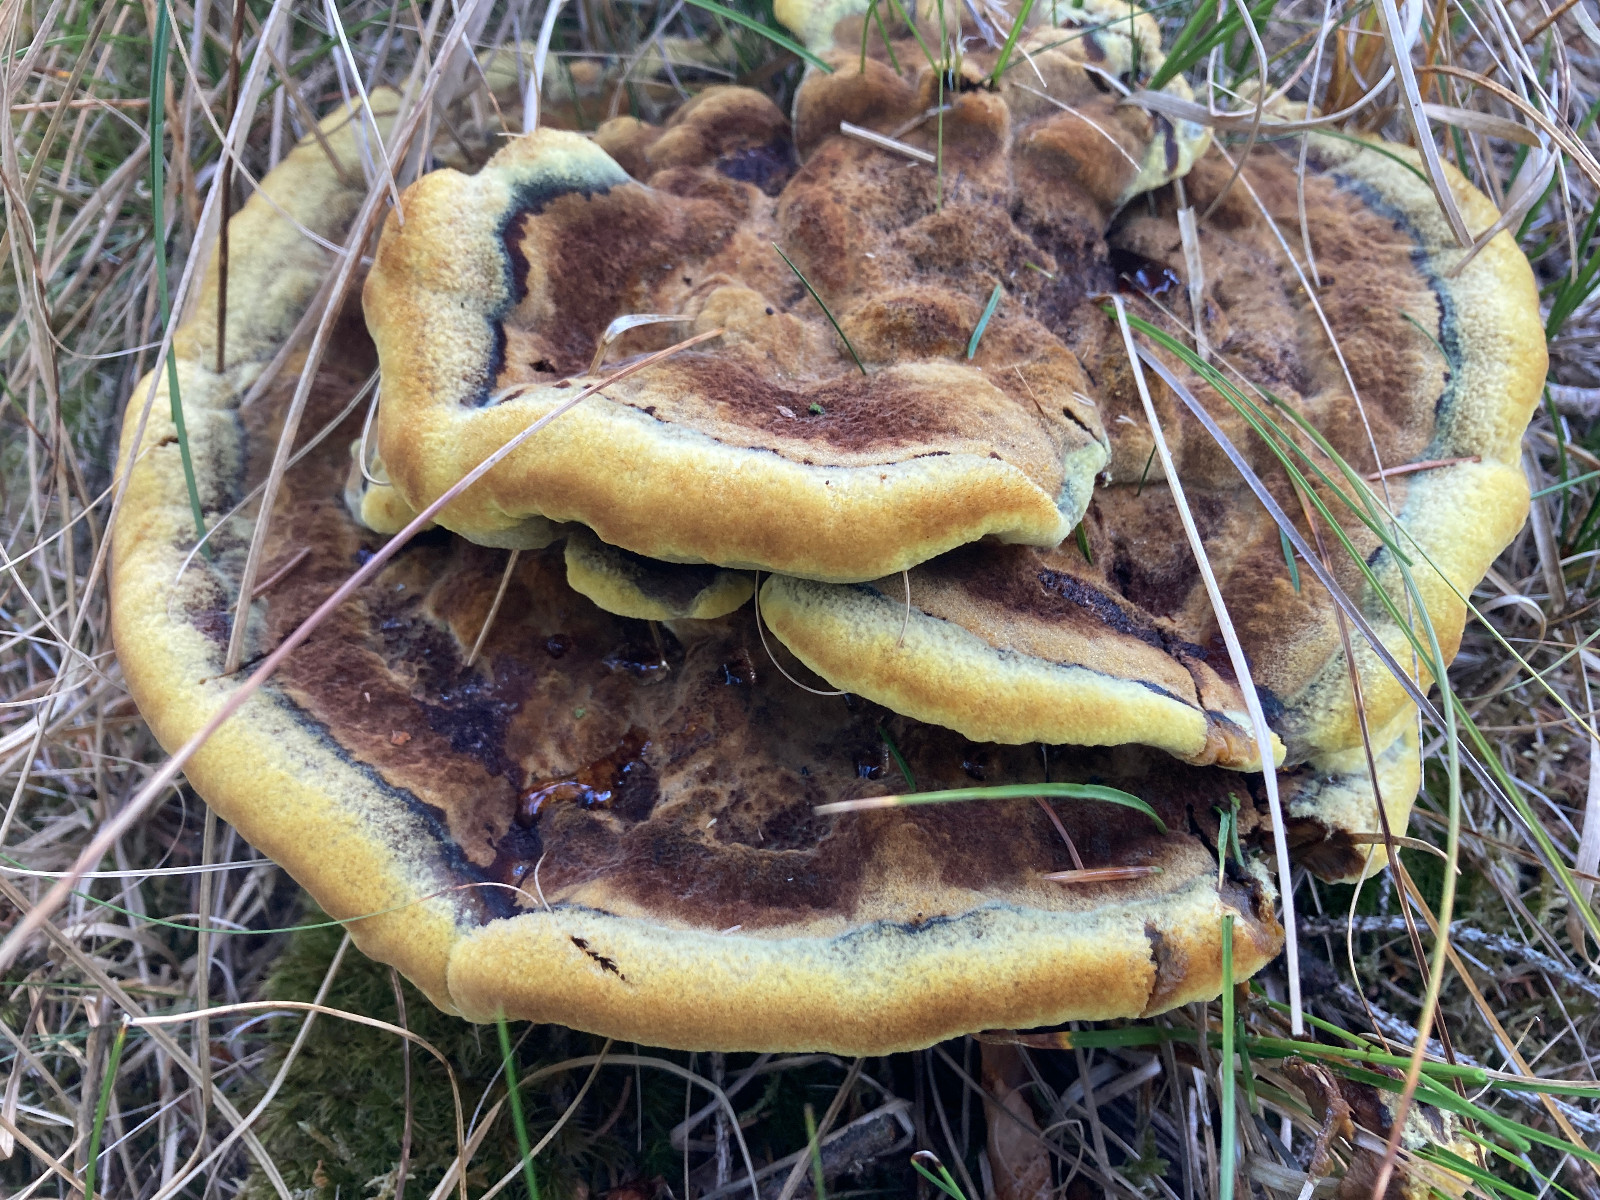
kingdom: Fungi
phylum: Basidiomycota
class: Agaricomycetes
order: Polyporales
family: Laetiporaceae
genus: Phaeolus
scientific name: Phaeolus schweinitzii
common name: brunporesvamp
